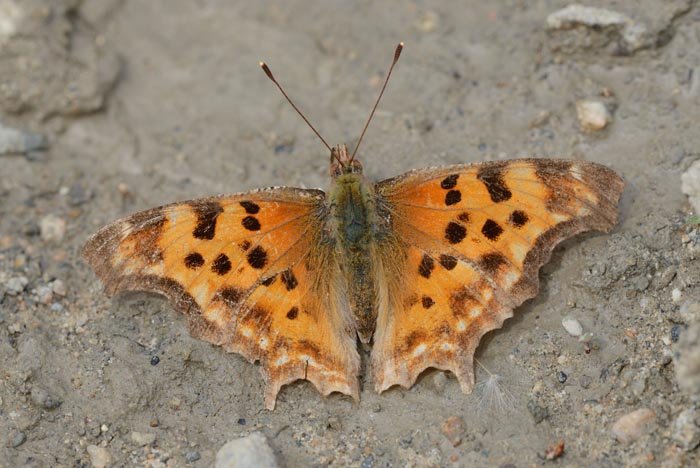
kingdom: Animalia
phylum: Arthropoda
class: Insecta
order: Lepidoptera
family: Nymphalidae
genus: Polygonia
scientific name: Polygonia satyrus
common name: Satyr Comma
